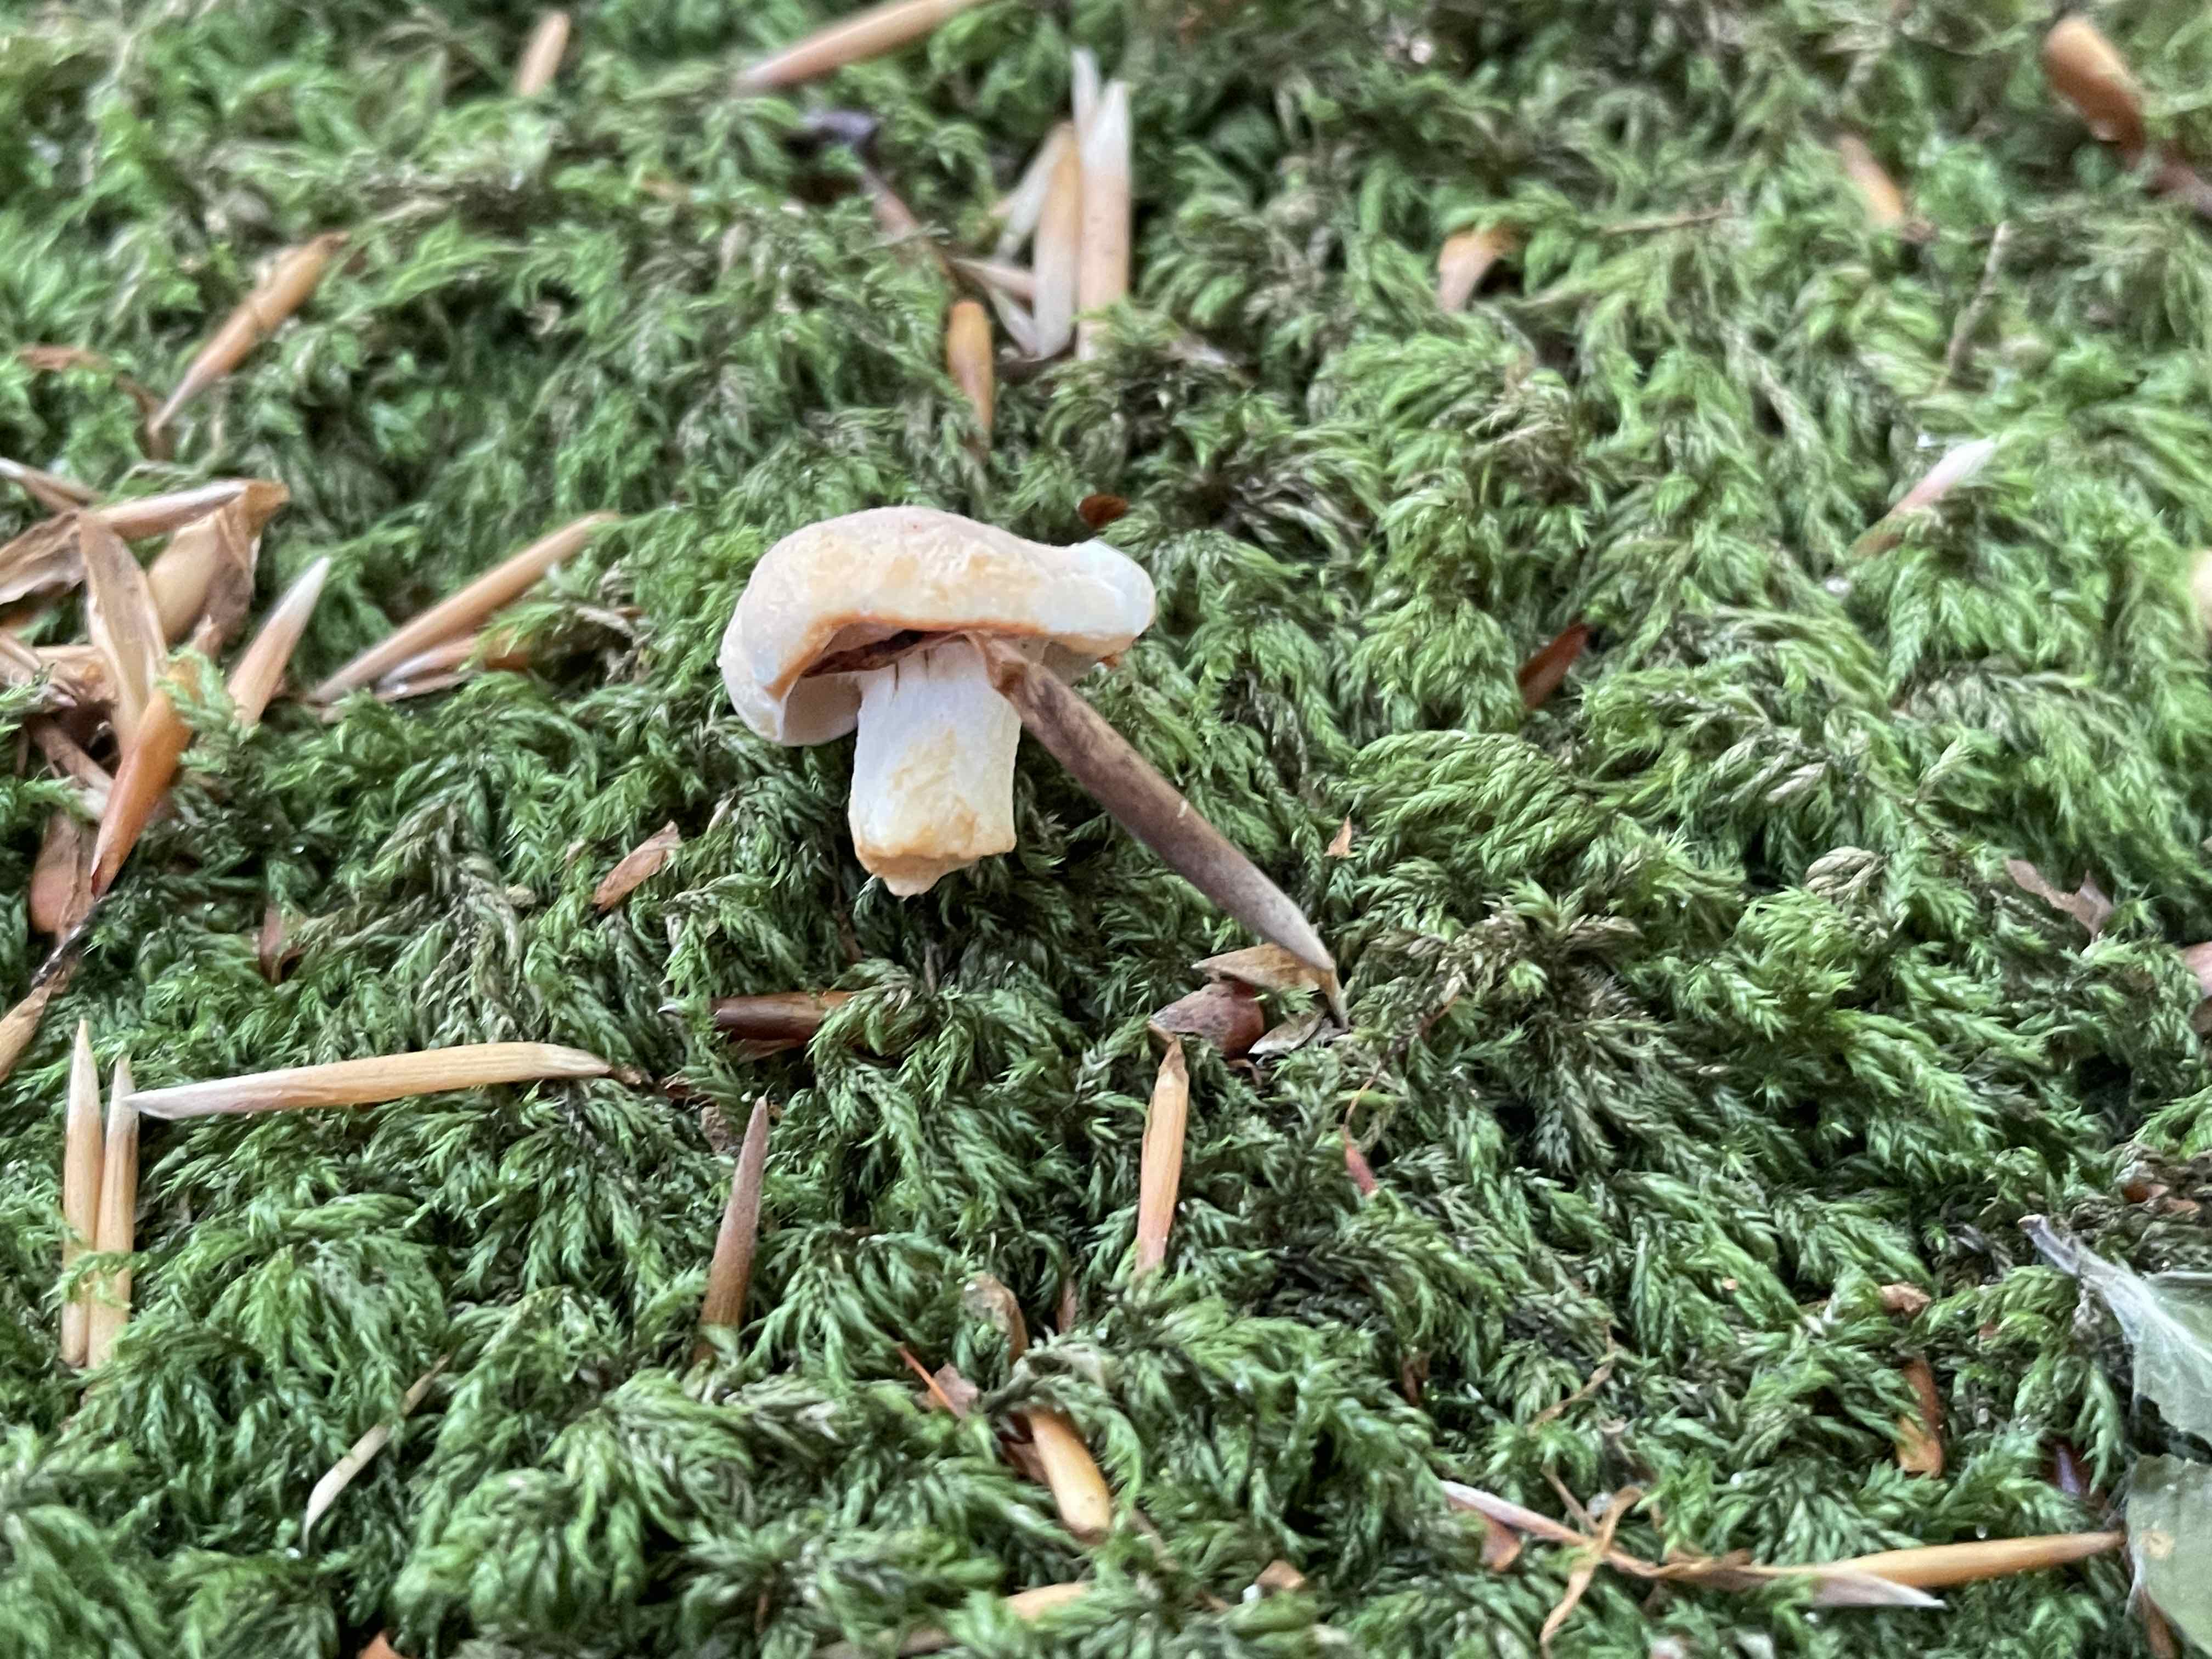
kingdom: Fungi
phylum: Basidiomycota
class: Agaricomycetes
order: Cantharellales
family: Hydnaceae
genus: Hydnum
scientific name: Hydnum
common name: pigsvamp
